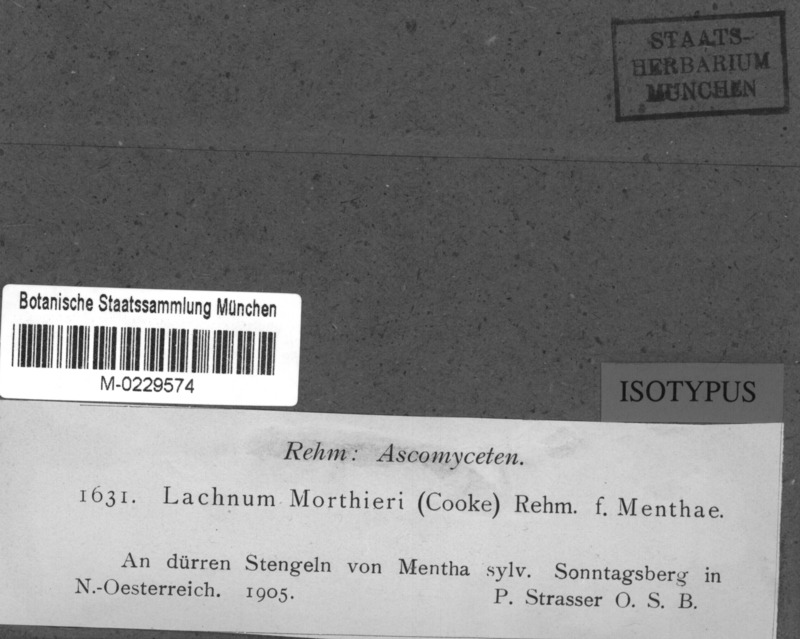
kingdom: Fungi
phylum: Ascomycota
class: Leotiomycetes
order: Helotiales
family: Lachnaceae
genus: Lachnum
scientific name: Lachnum morthieri
